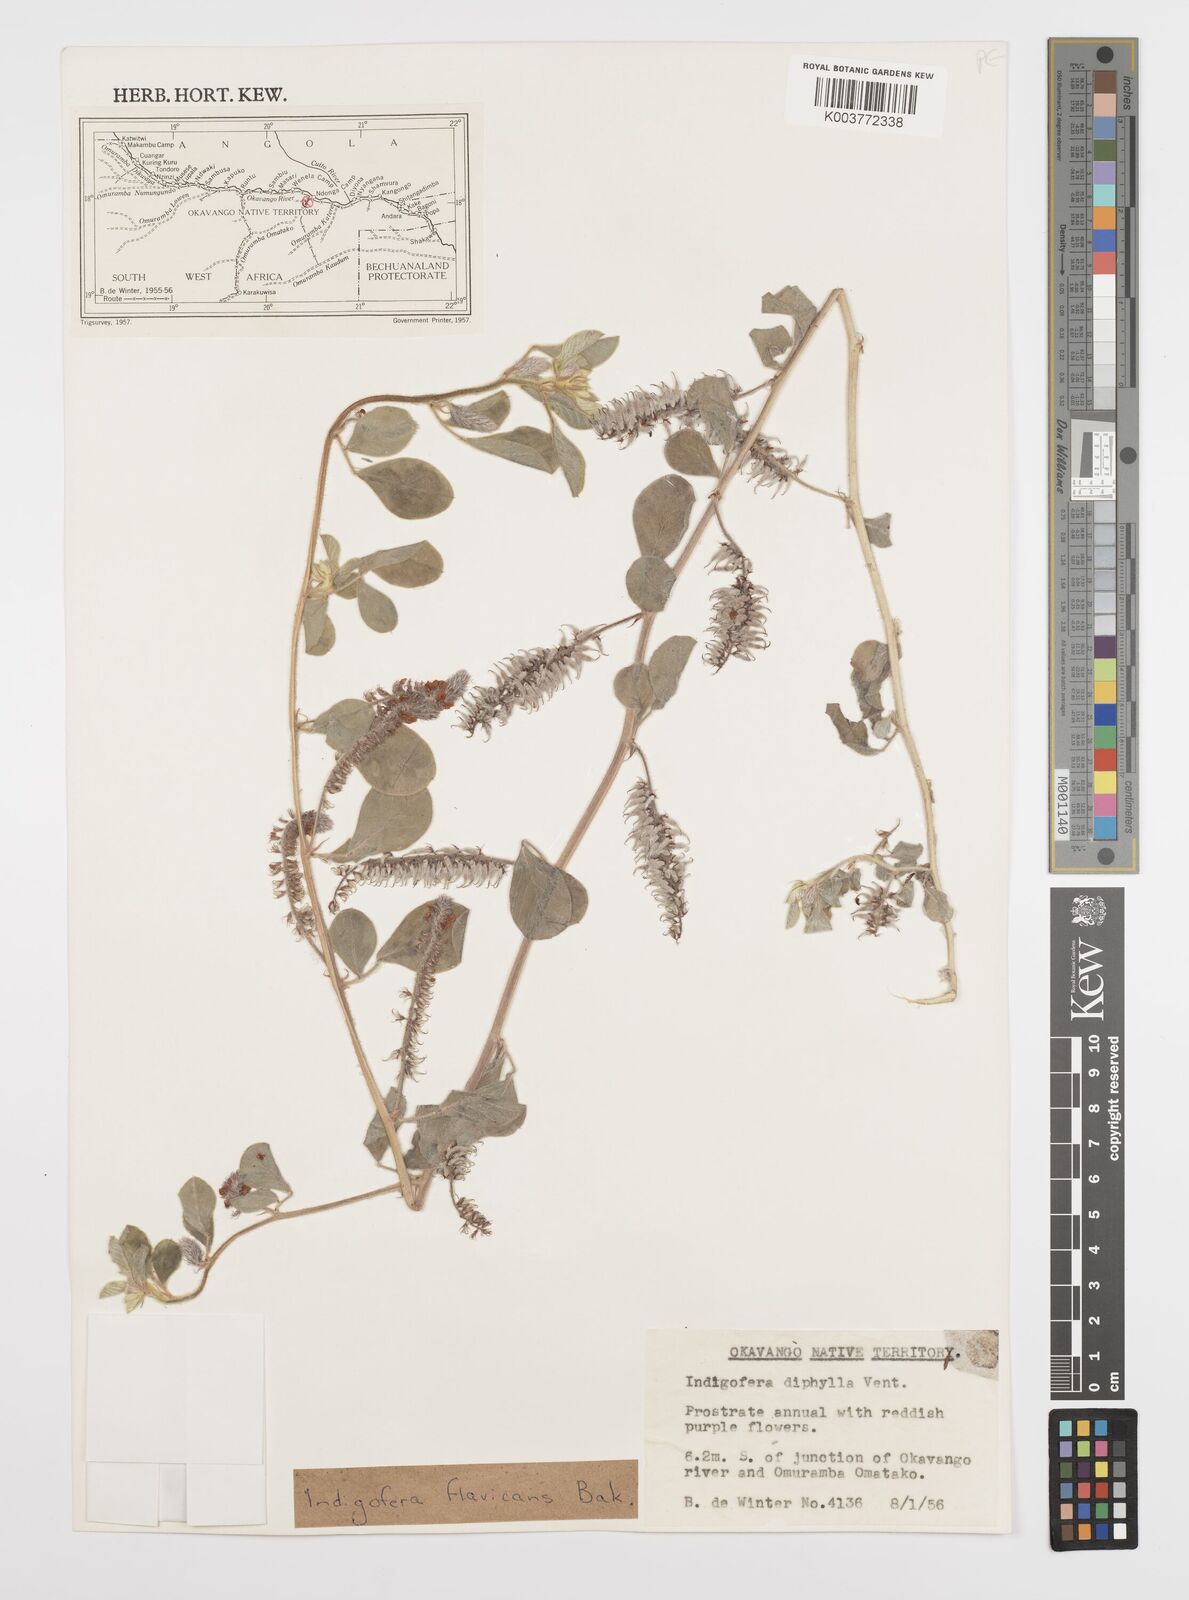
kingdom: Plantae
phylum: Tracheophyta
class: Magnoliopsida
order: Fabales
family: Fabaceae
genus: Indigofera
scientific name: Indigofera flavicans
